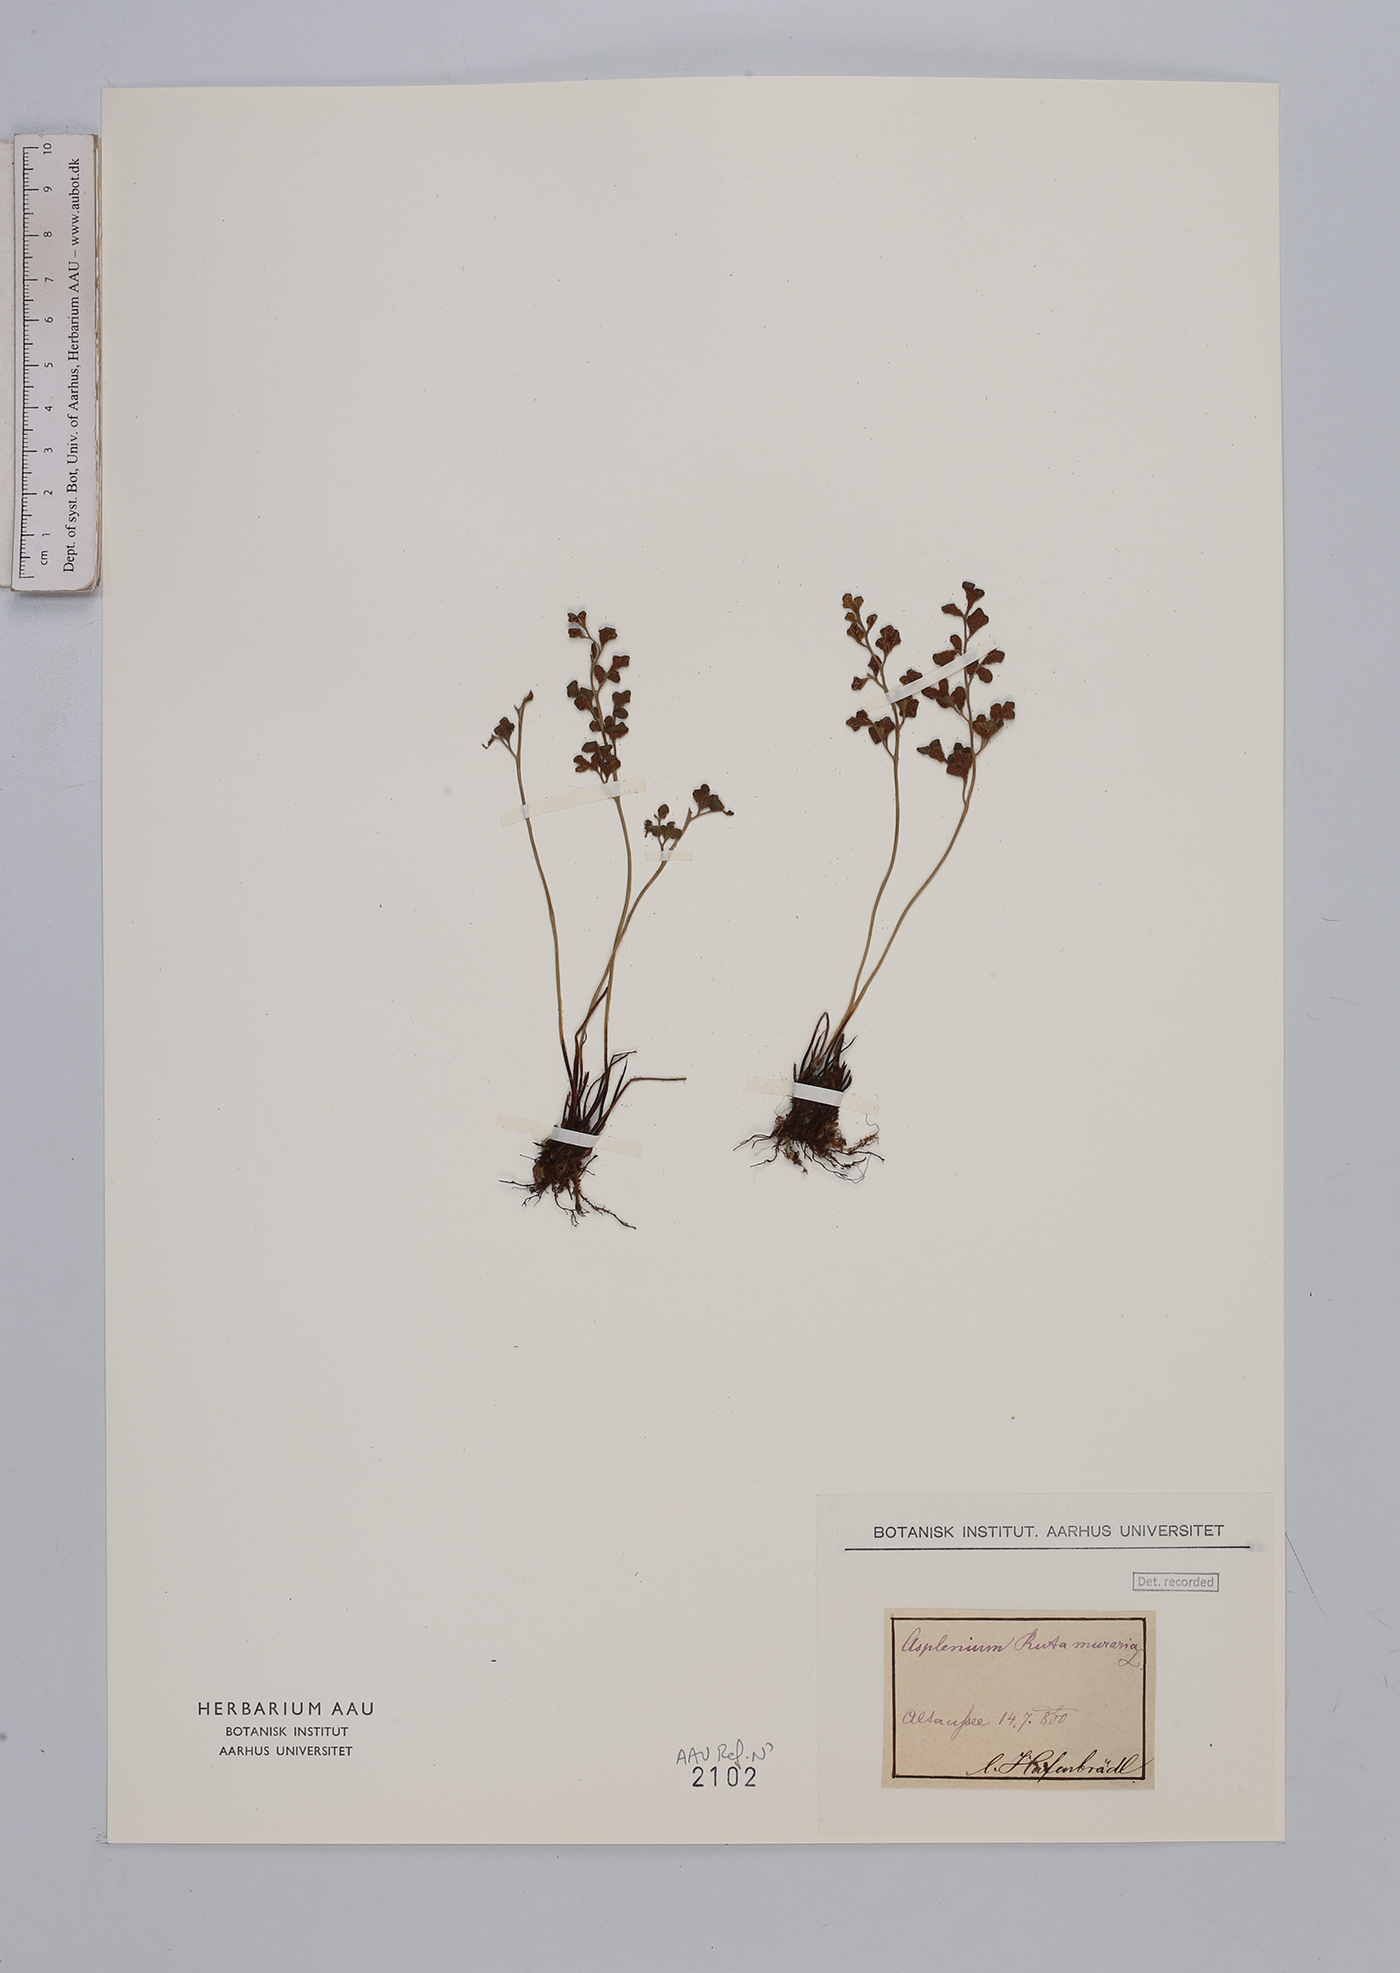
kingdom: Plantae
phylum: Tracheophyta
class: Polypodiopsida
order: Polypodiales
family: Aspleniaceae
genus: Asplenium
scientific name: Asplenium ruta-muraria
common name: Wall-rue
